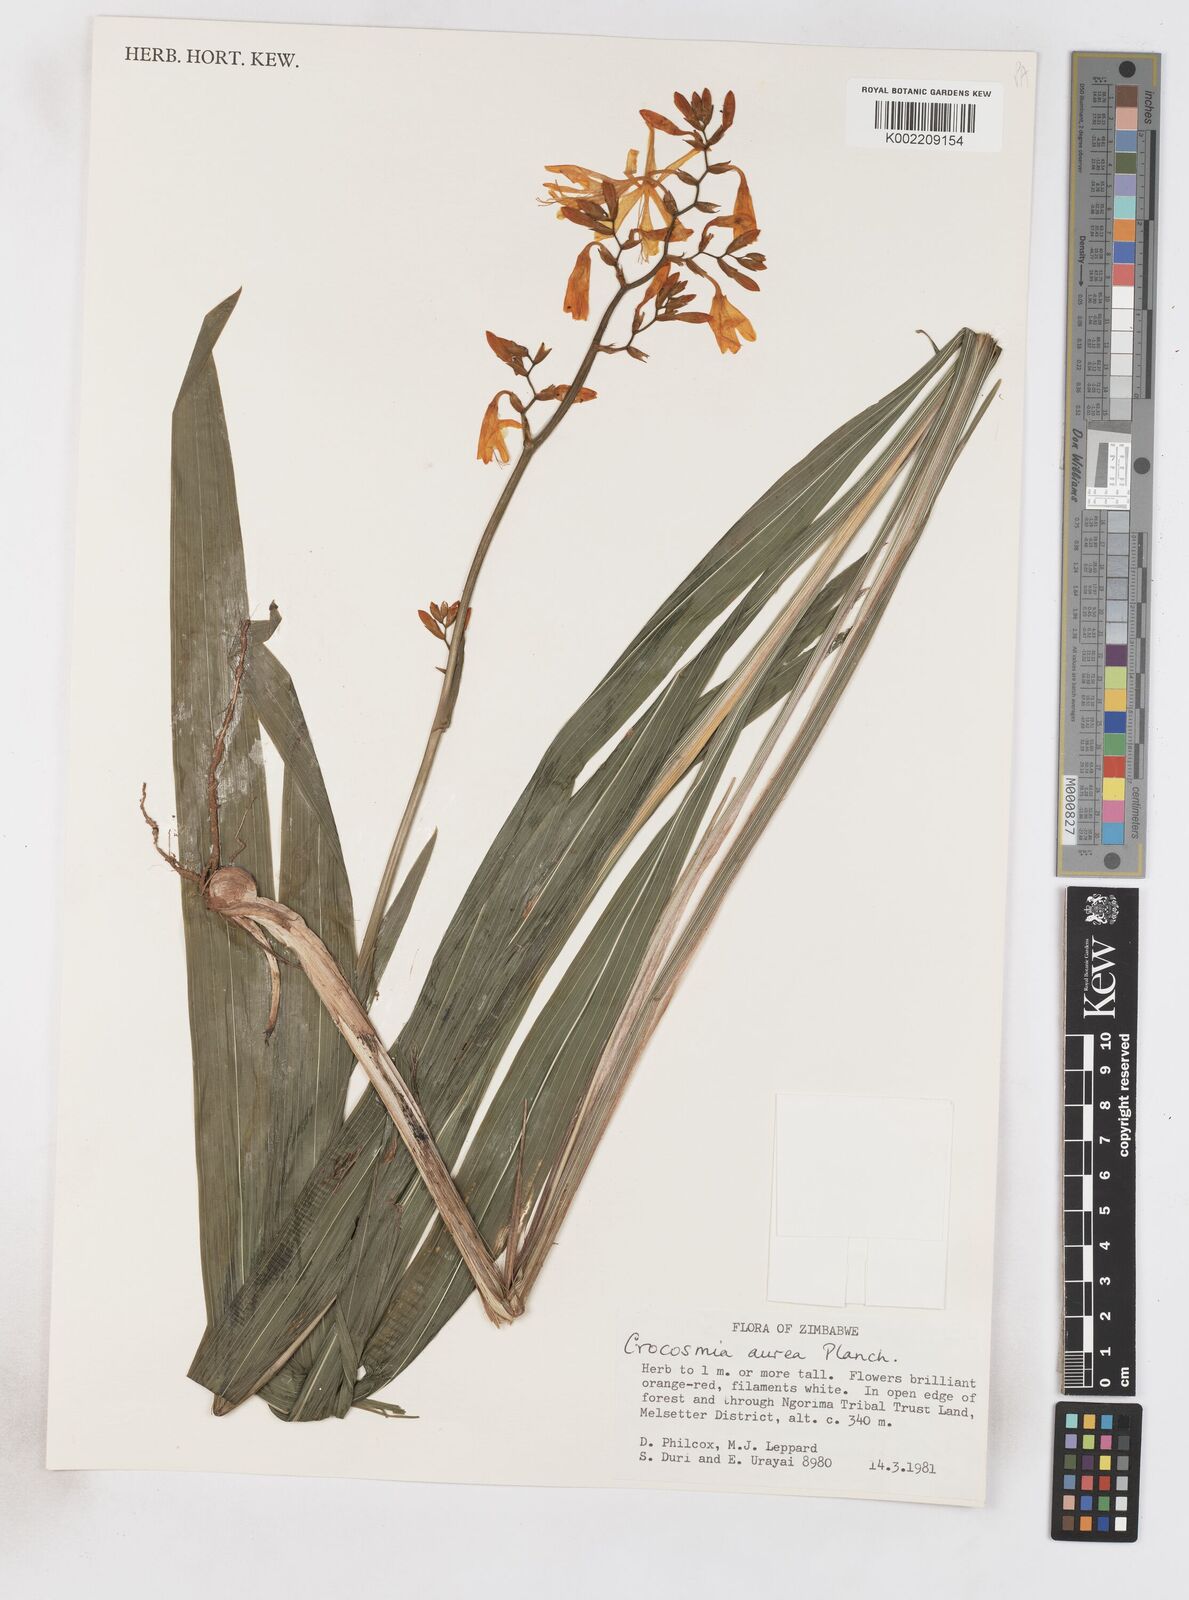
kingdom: Plantae
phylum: Tracheophyta
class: Liliopsida
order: Asparagales
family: Iridaceae
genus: Crocosmia
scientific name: Crocosmia aurea
